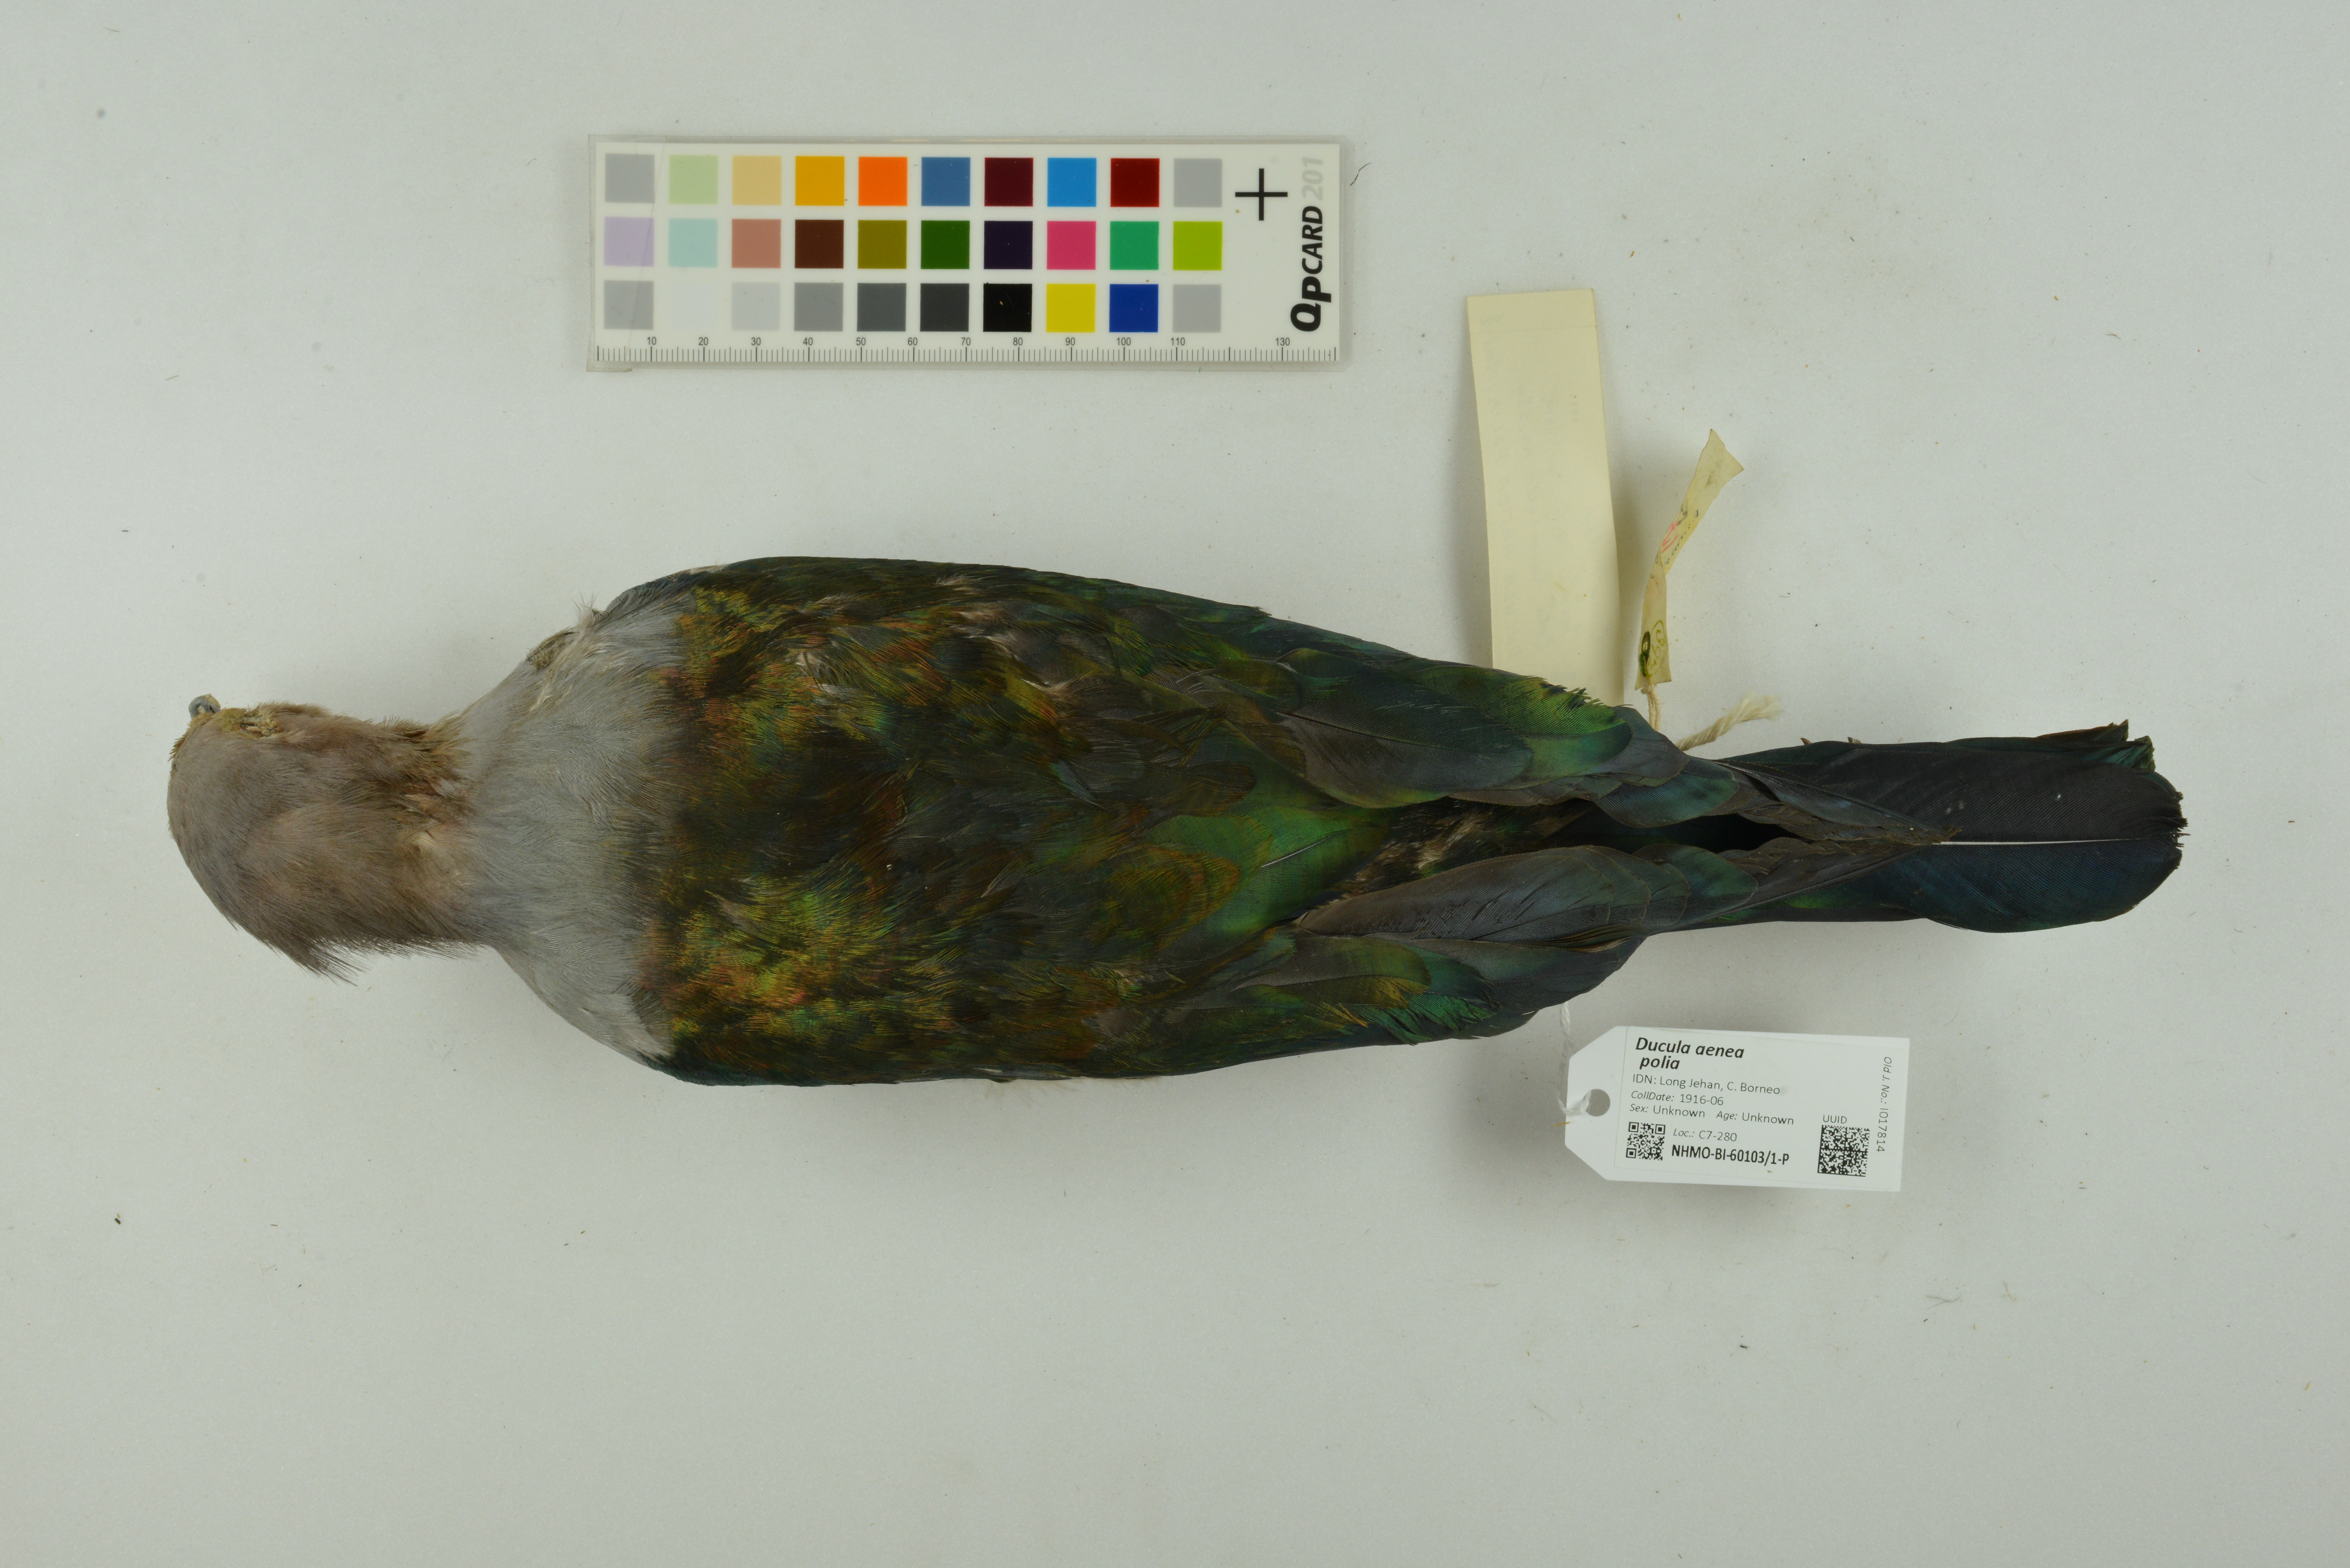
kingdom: Animalia
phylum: Chordata
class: Aves
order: Columbiformes
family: Columbidae
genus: Ducula
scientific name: Ducula aenea
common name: Green imperial pigeon
